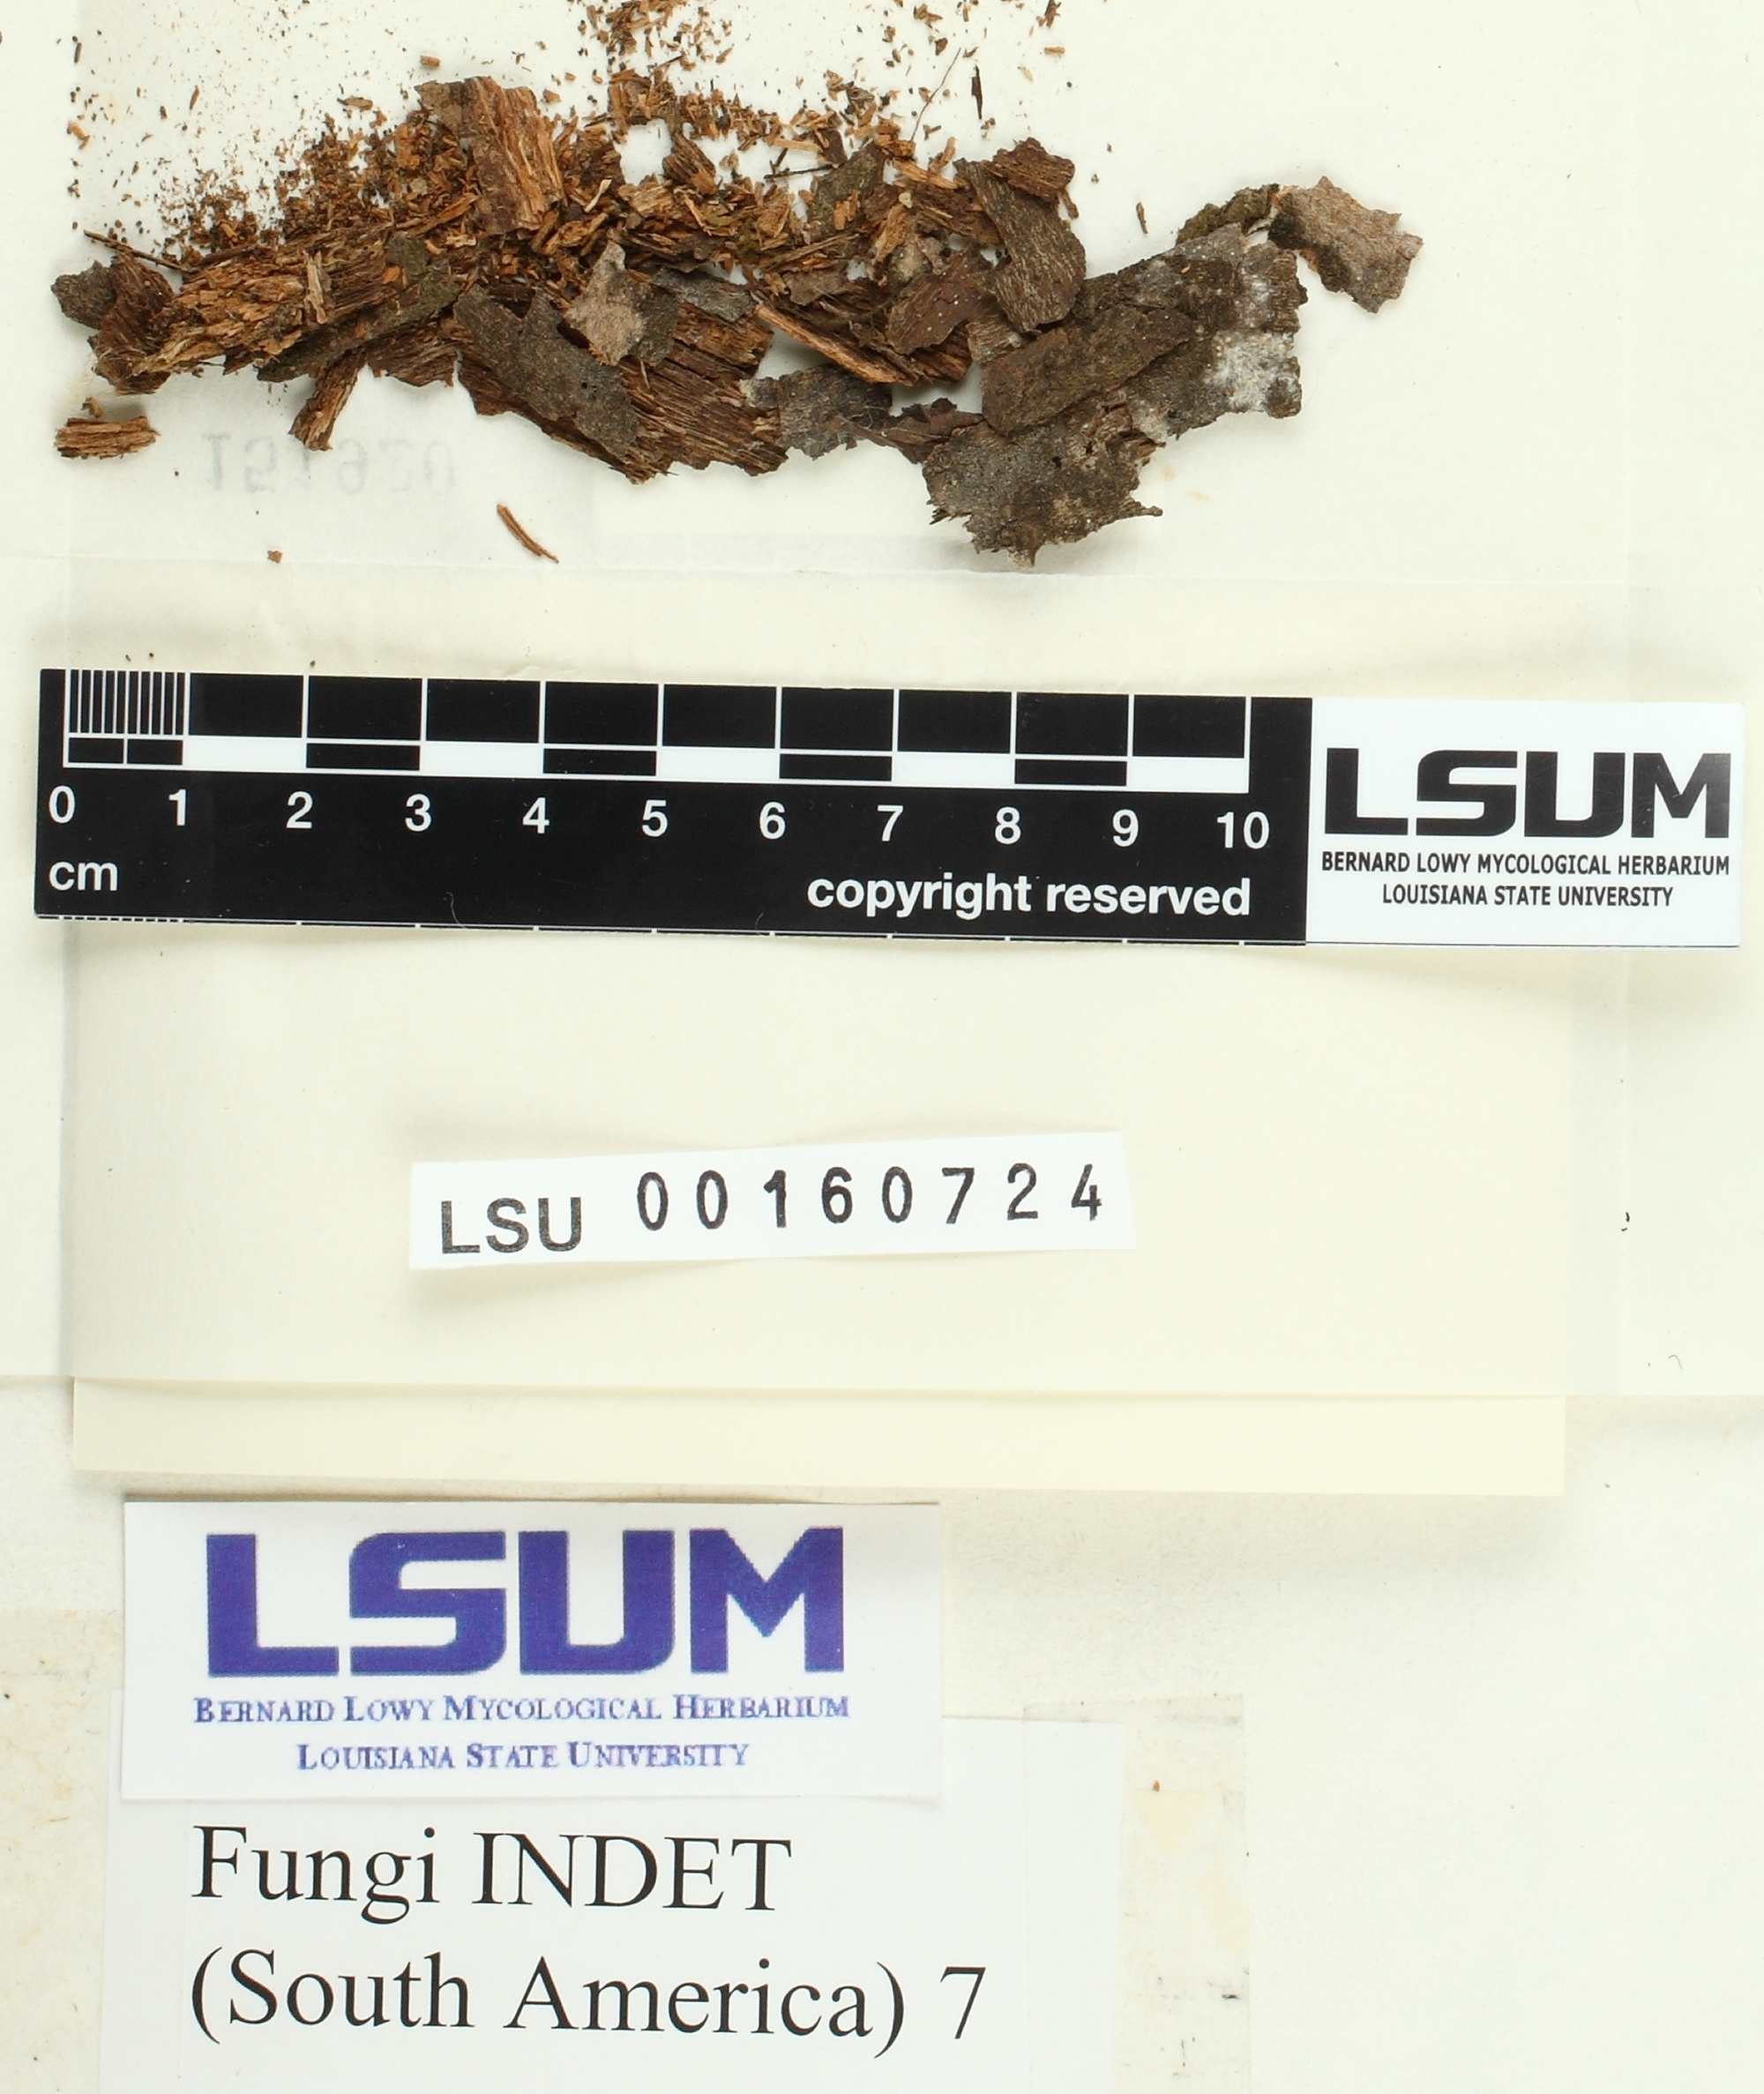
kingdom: Fungi
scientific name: Fungi
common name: Fungi
